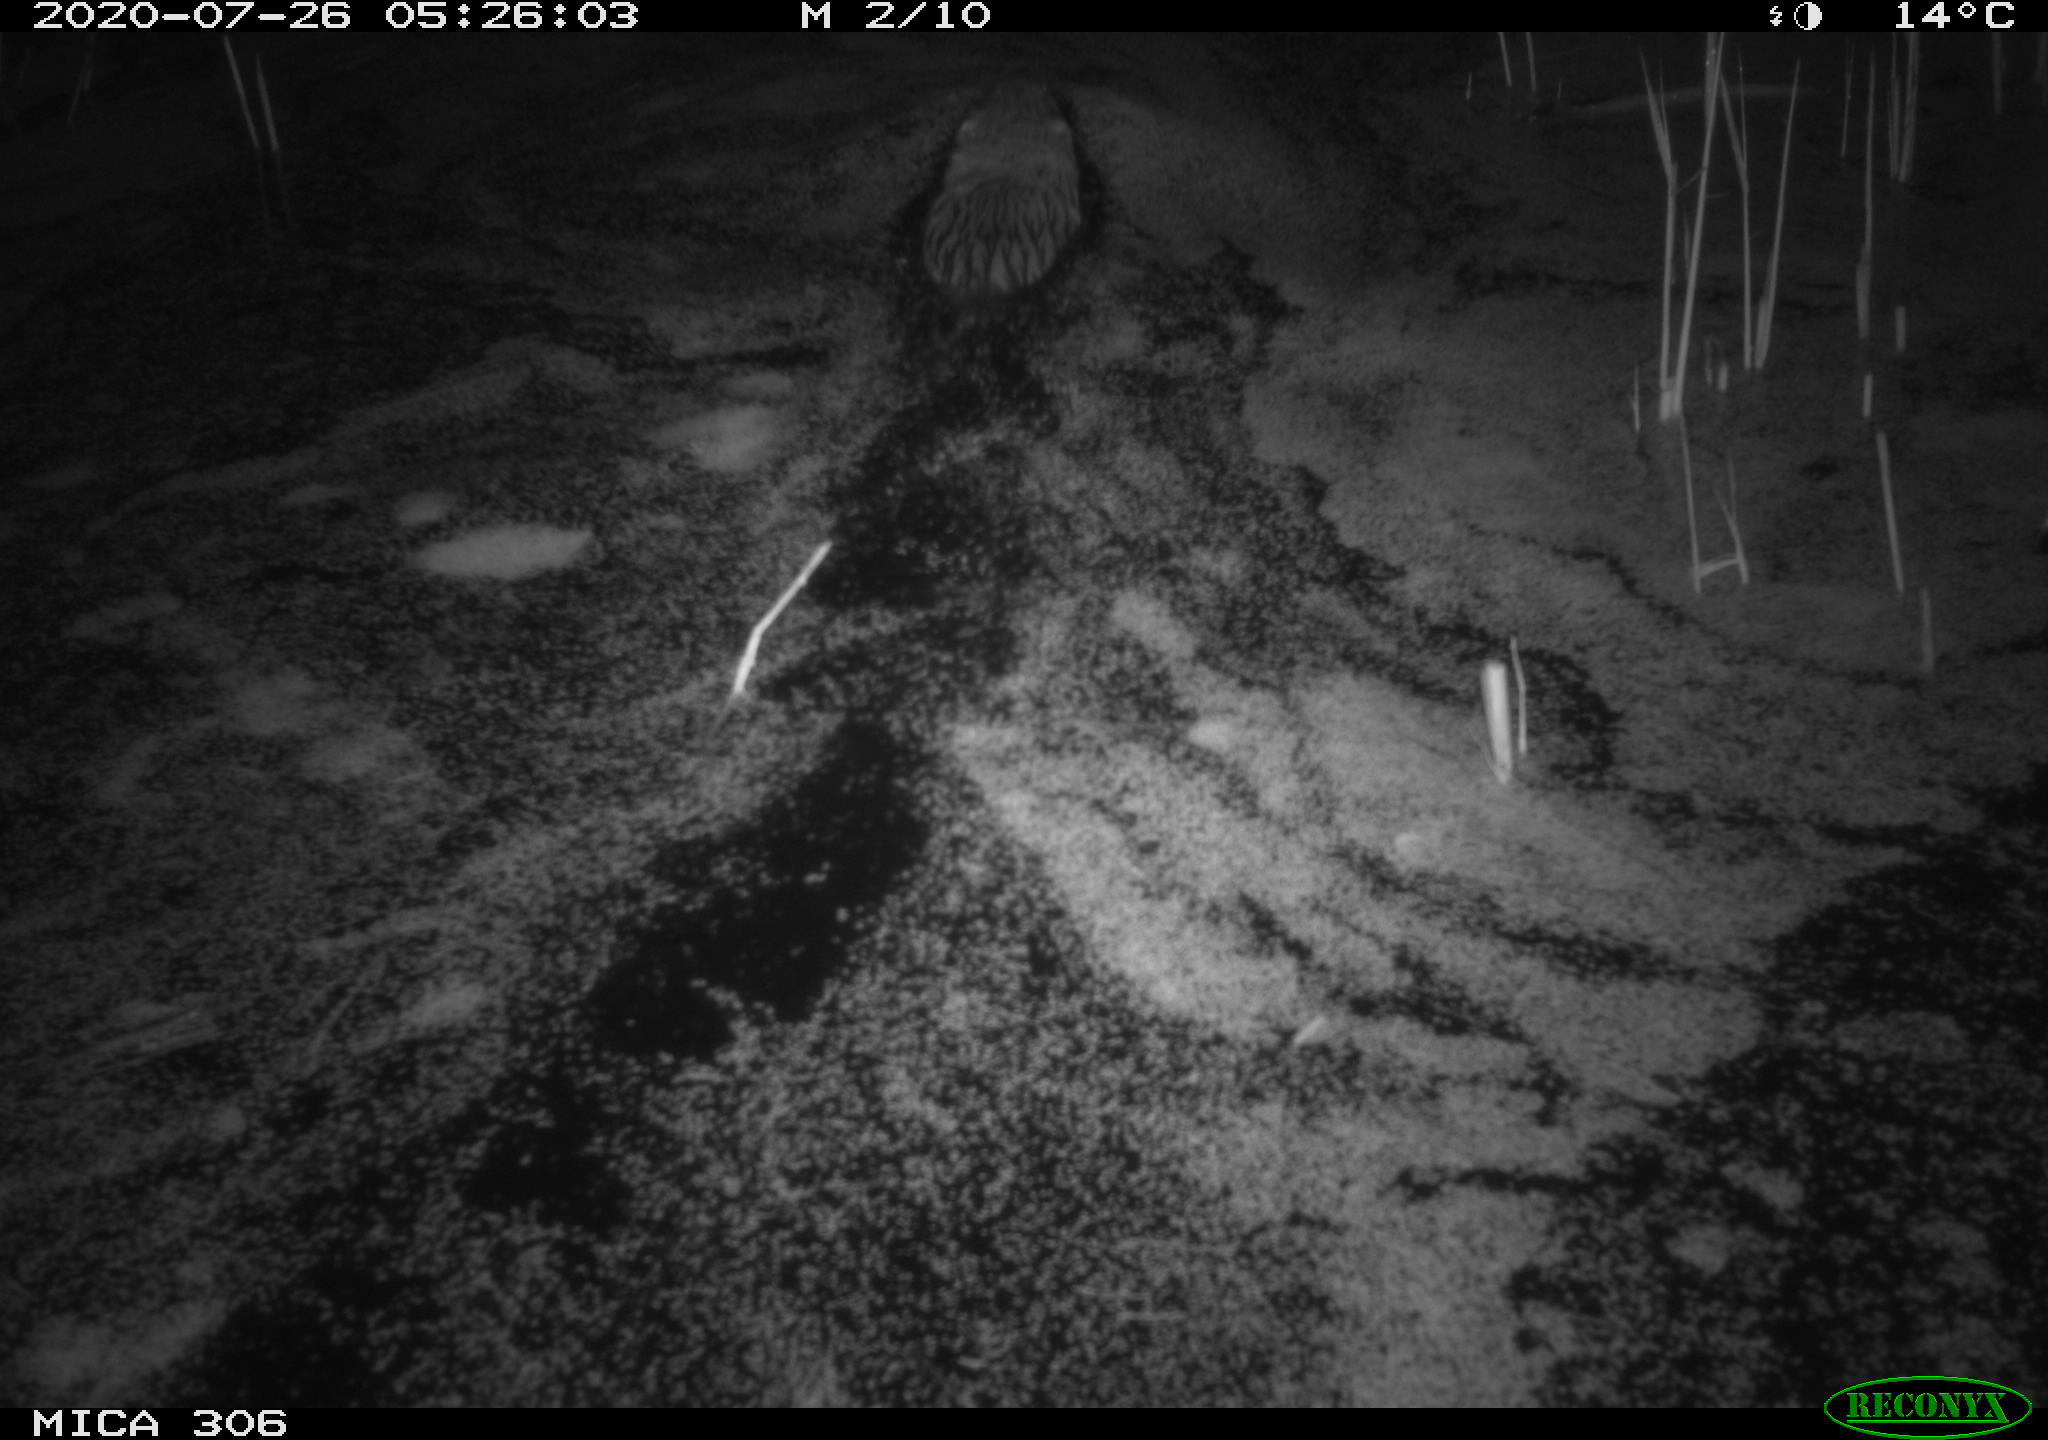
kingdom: Animalia
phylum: Chordata
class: Mammalia
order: Rodentia
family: Cricetidae
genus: Ondatra
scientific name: Ondatra zibethicus
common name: Muskrat
